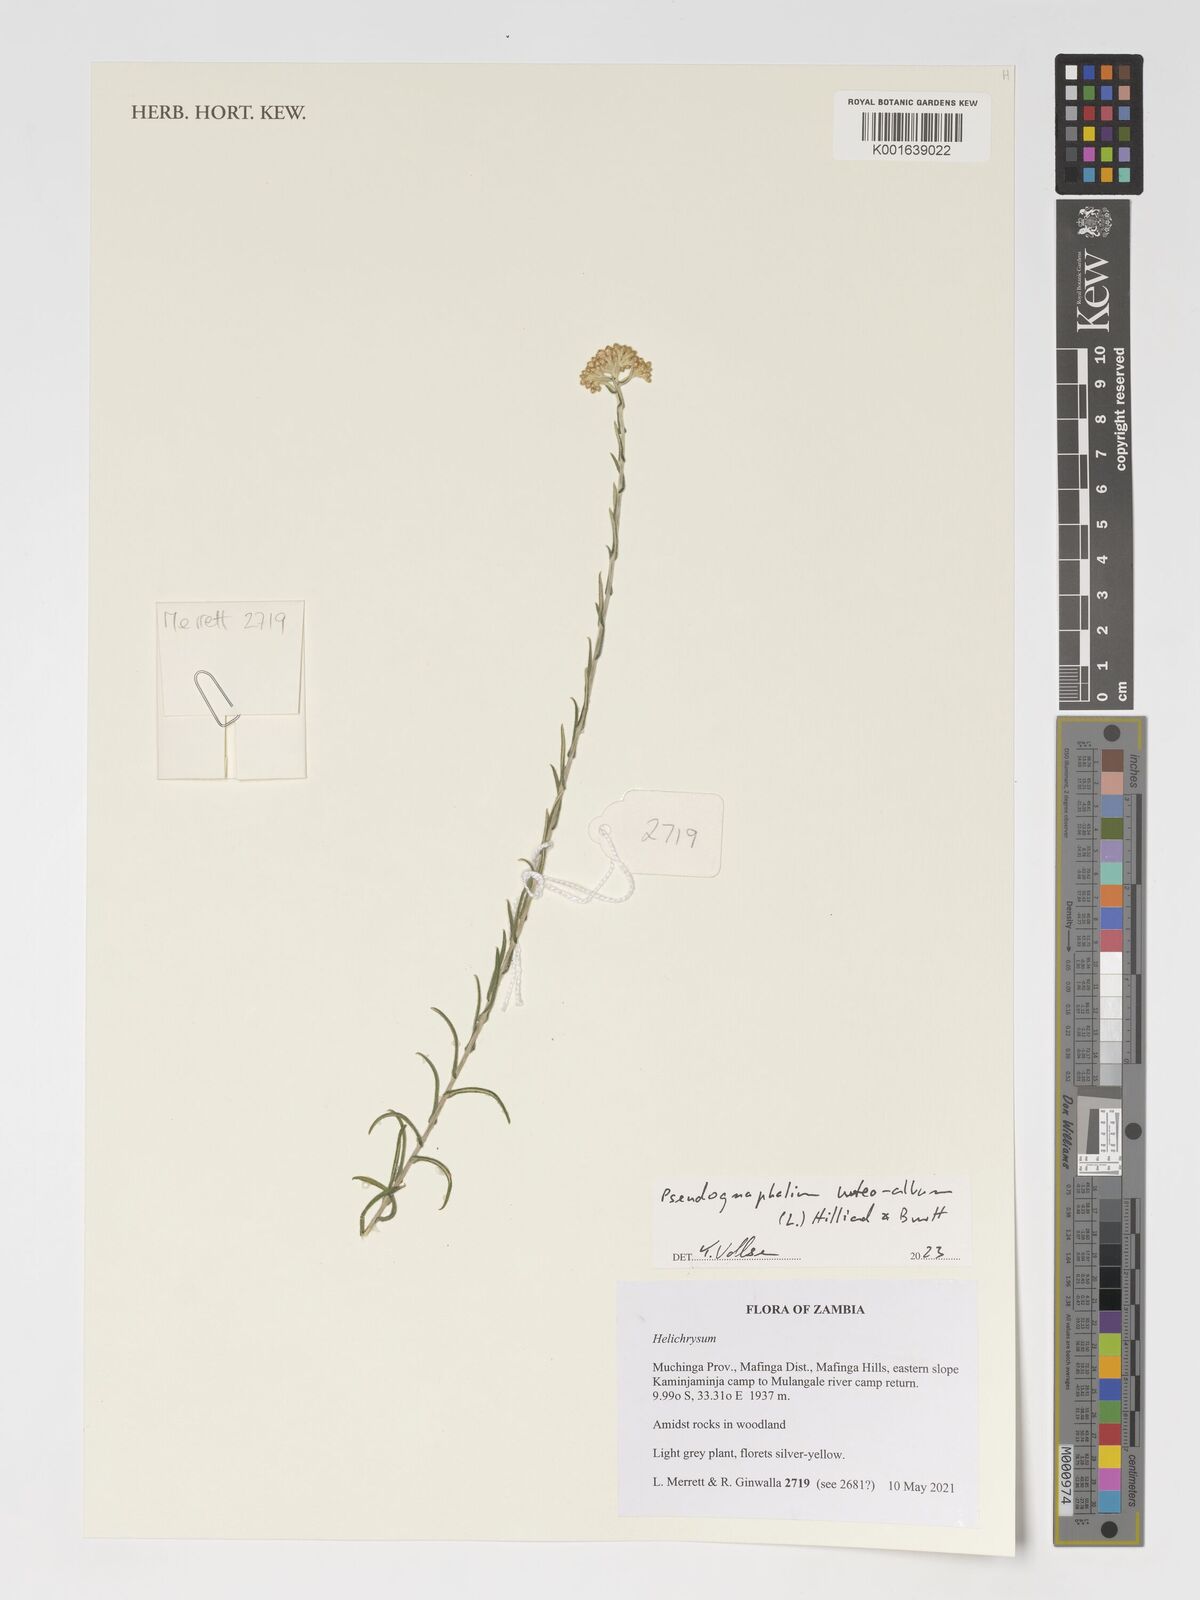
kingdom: Plantae
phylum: Tracheophyta
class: Magnoliopsida
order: Asterales
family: Asteraceae
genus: Helichrysum
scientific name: Helichrysum luteoalbum
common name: Daisy
